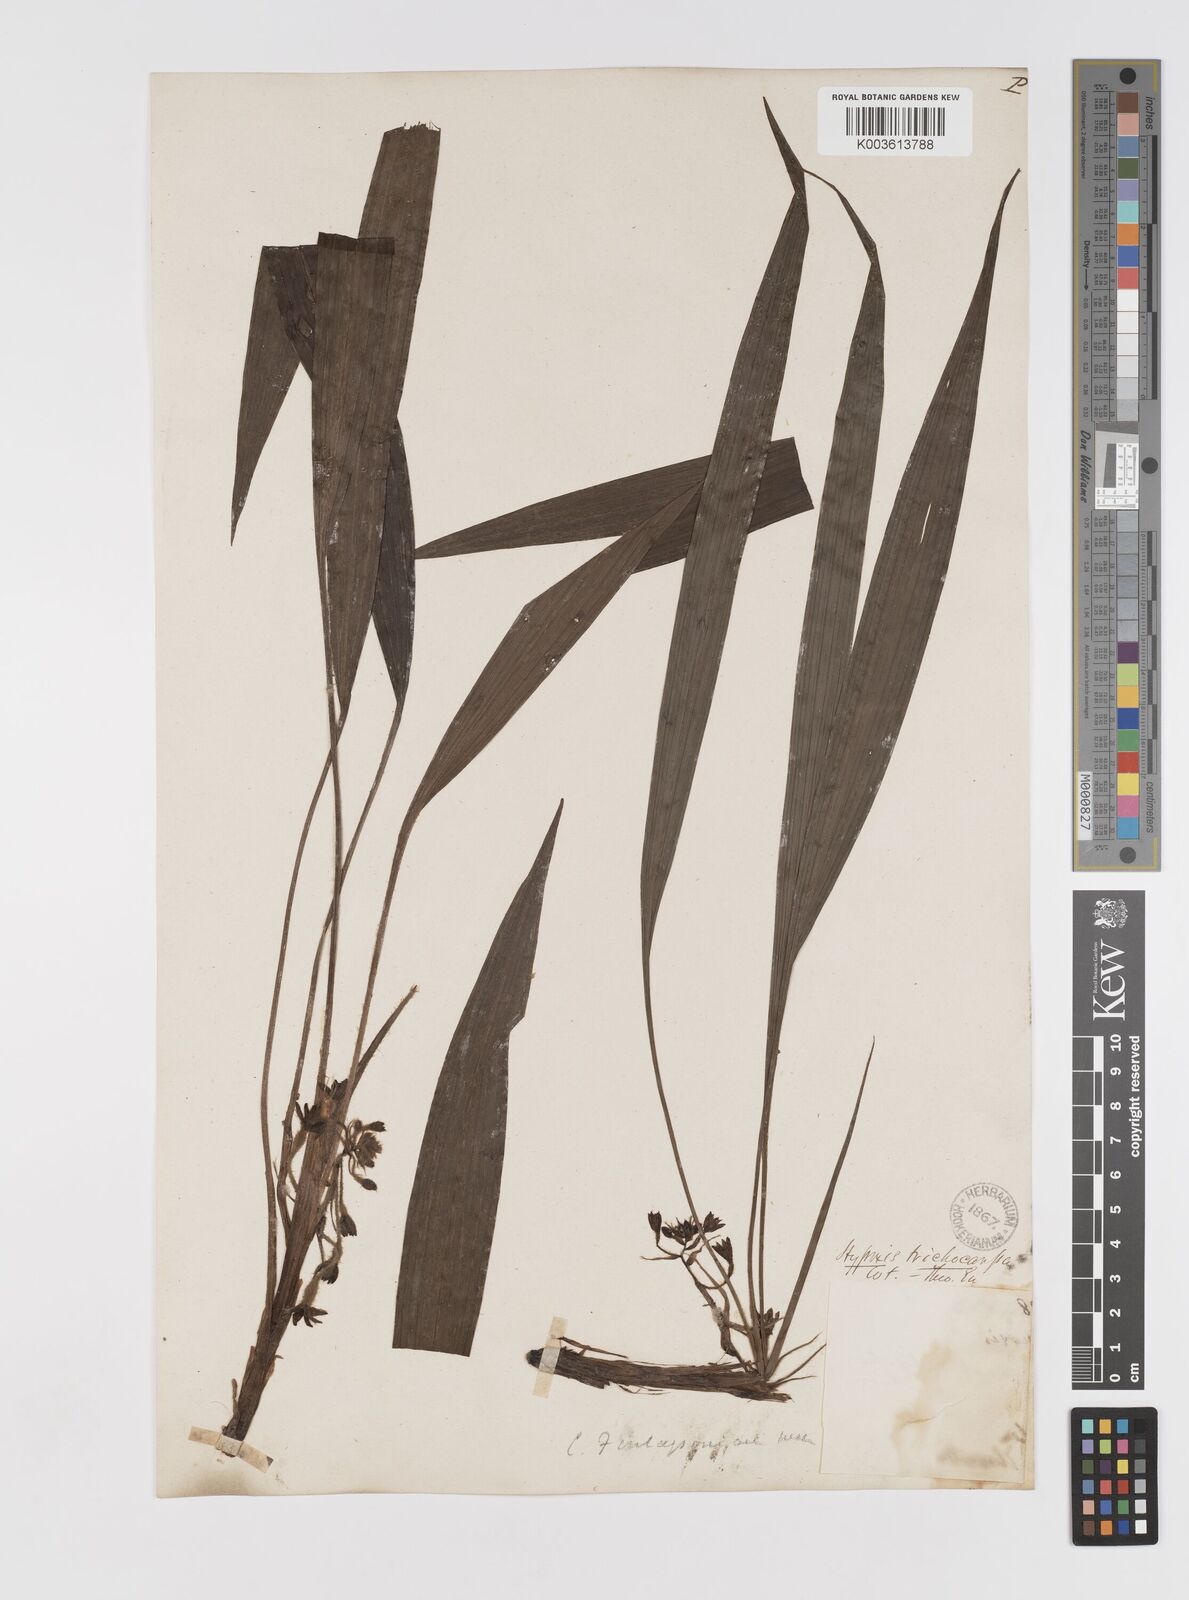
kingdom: Plantae
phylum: Tracheophyta
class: Liliopsida
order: Asparagales
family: Hypoxidaceae
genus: Curculigo
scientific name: Curculigo trichocarpa
